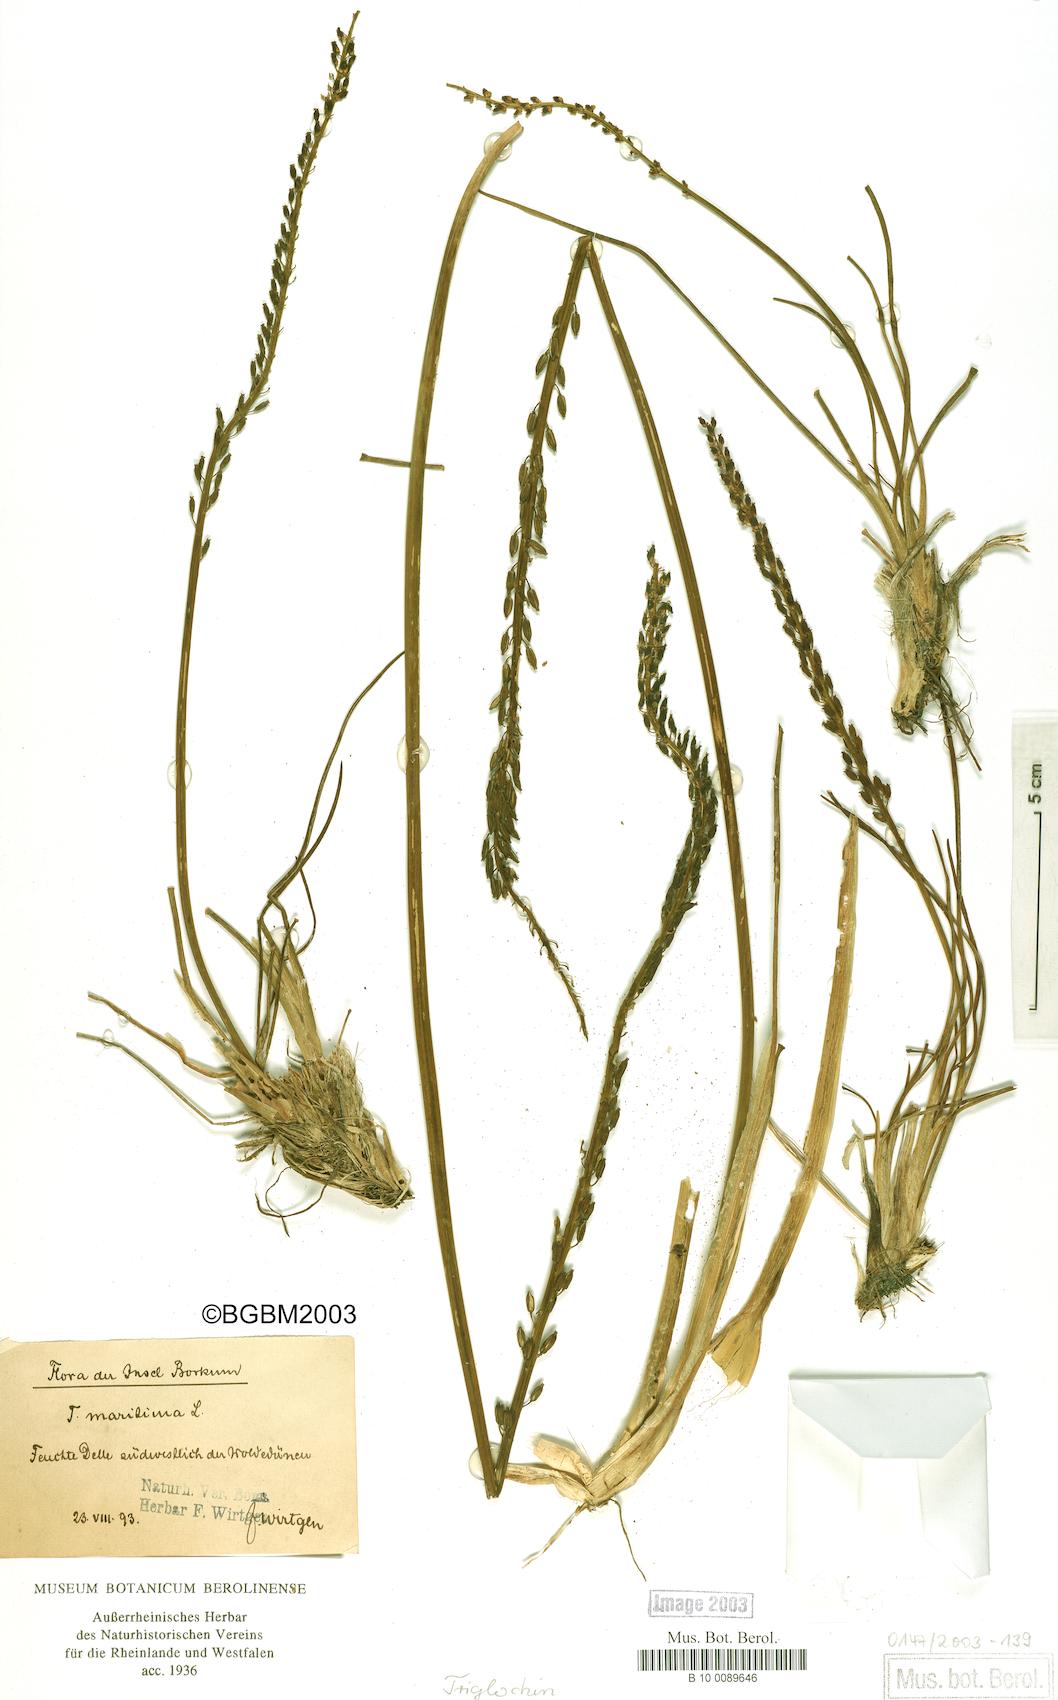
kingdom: Plantae
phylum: Tracheophyta
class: Liliopsida
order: Alismatales
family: Juncaginaceae
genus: Triglochin
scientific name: Triglochin maritima
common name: Sea arrowgrass
